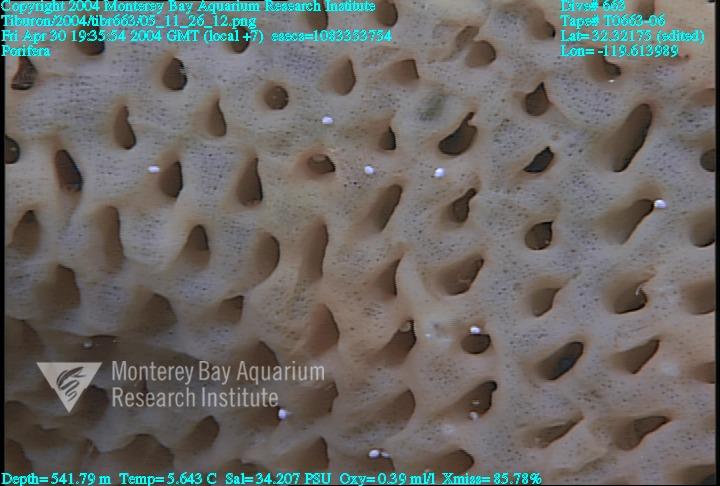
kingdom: Animalia
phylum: Porifera
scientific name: Porifera
